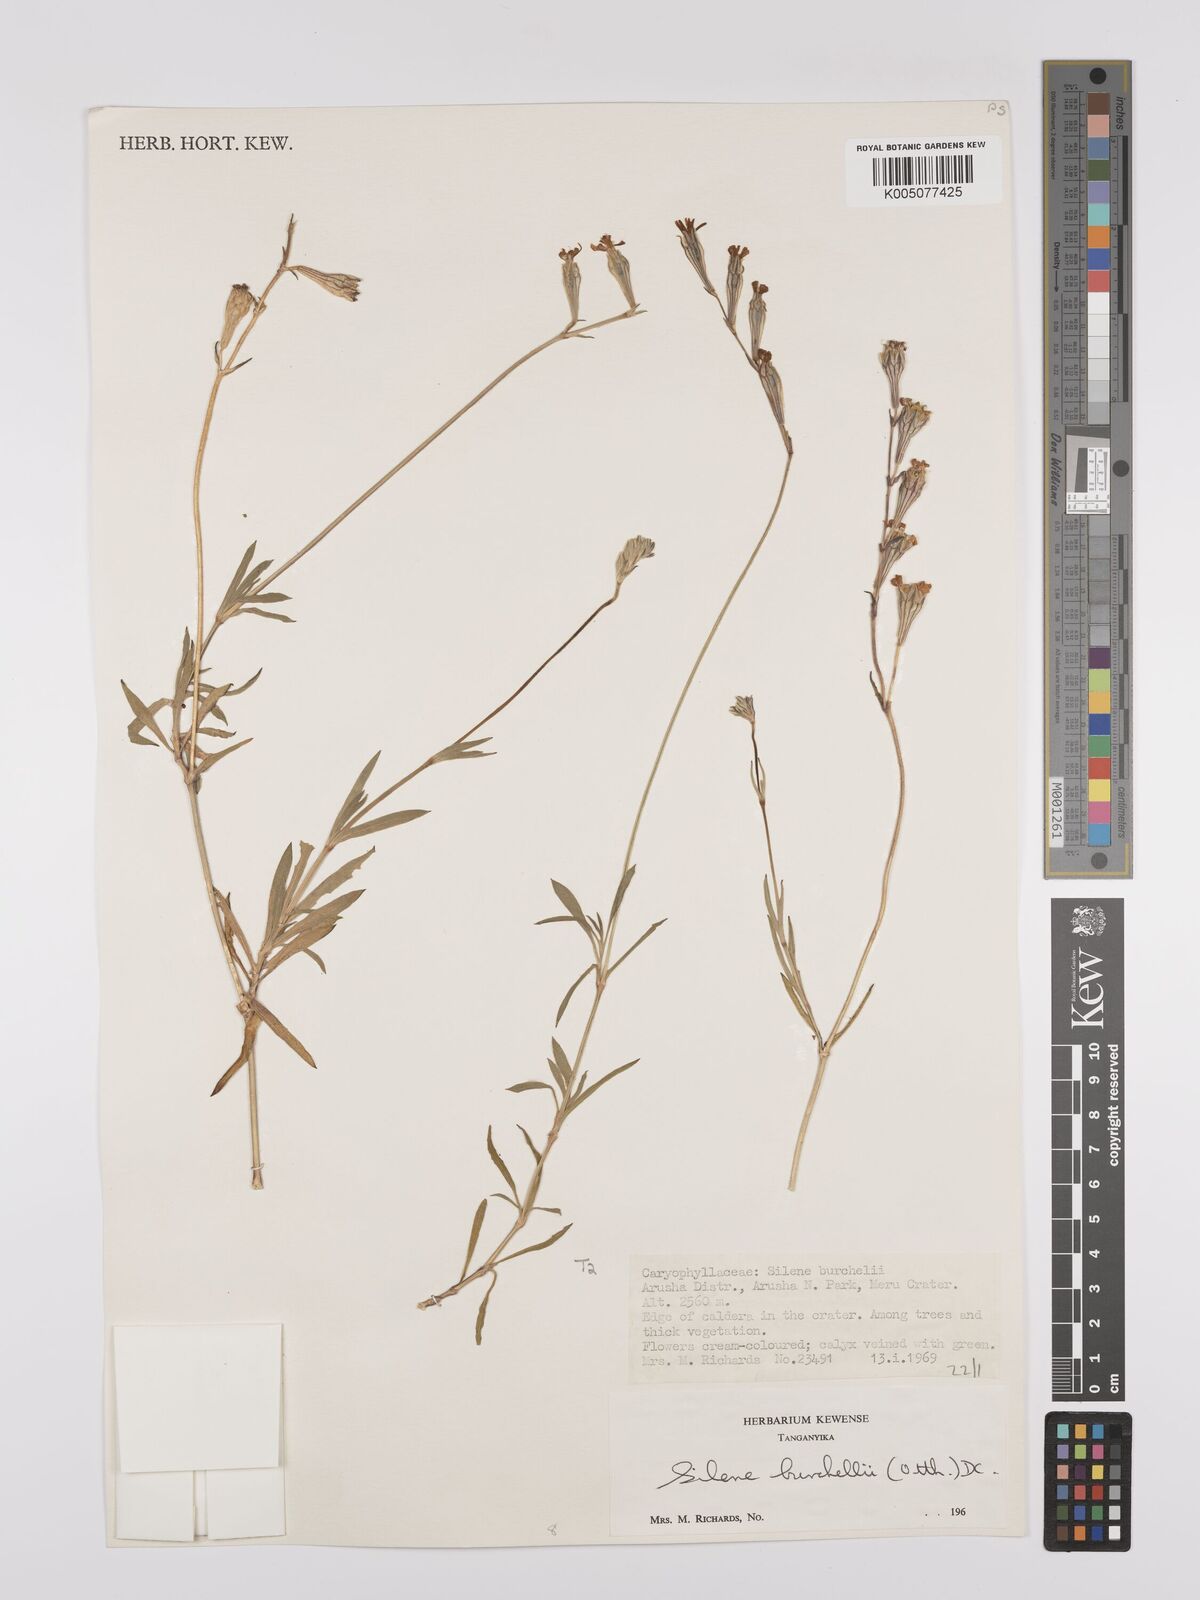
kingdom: Plantae
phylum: Tracheophyta
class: Magnoliopsida
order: Caryophyllales
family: Caryophyllaceae
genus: Silene
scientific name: Silene burchellii
